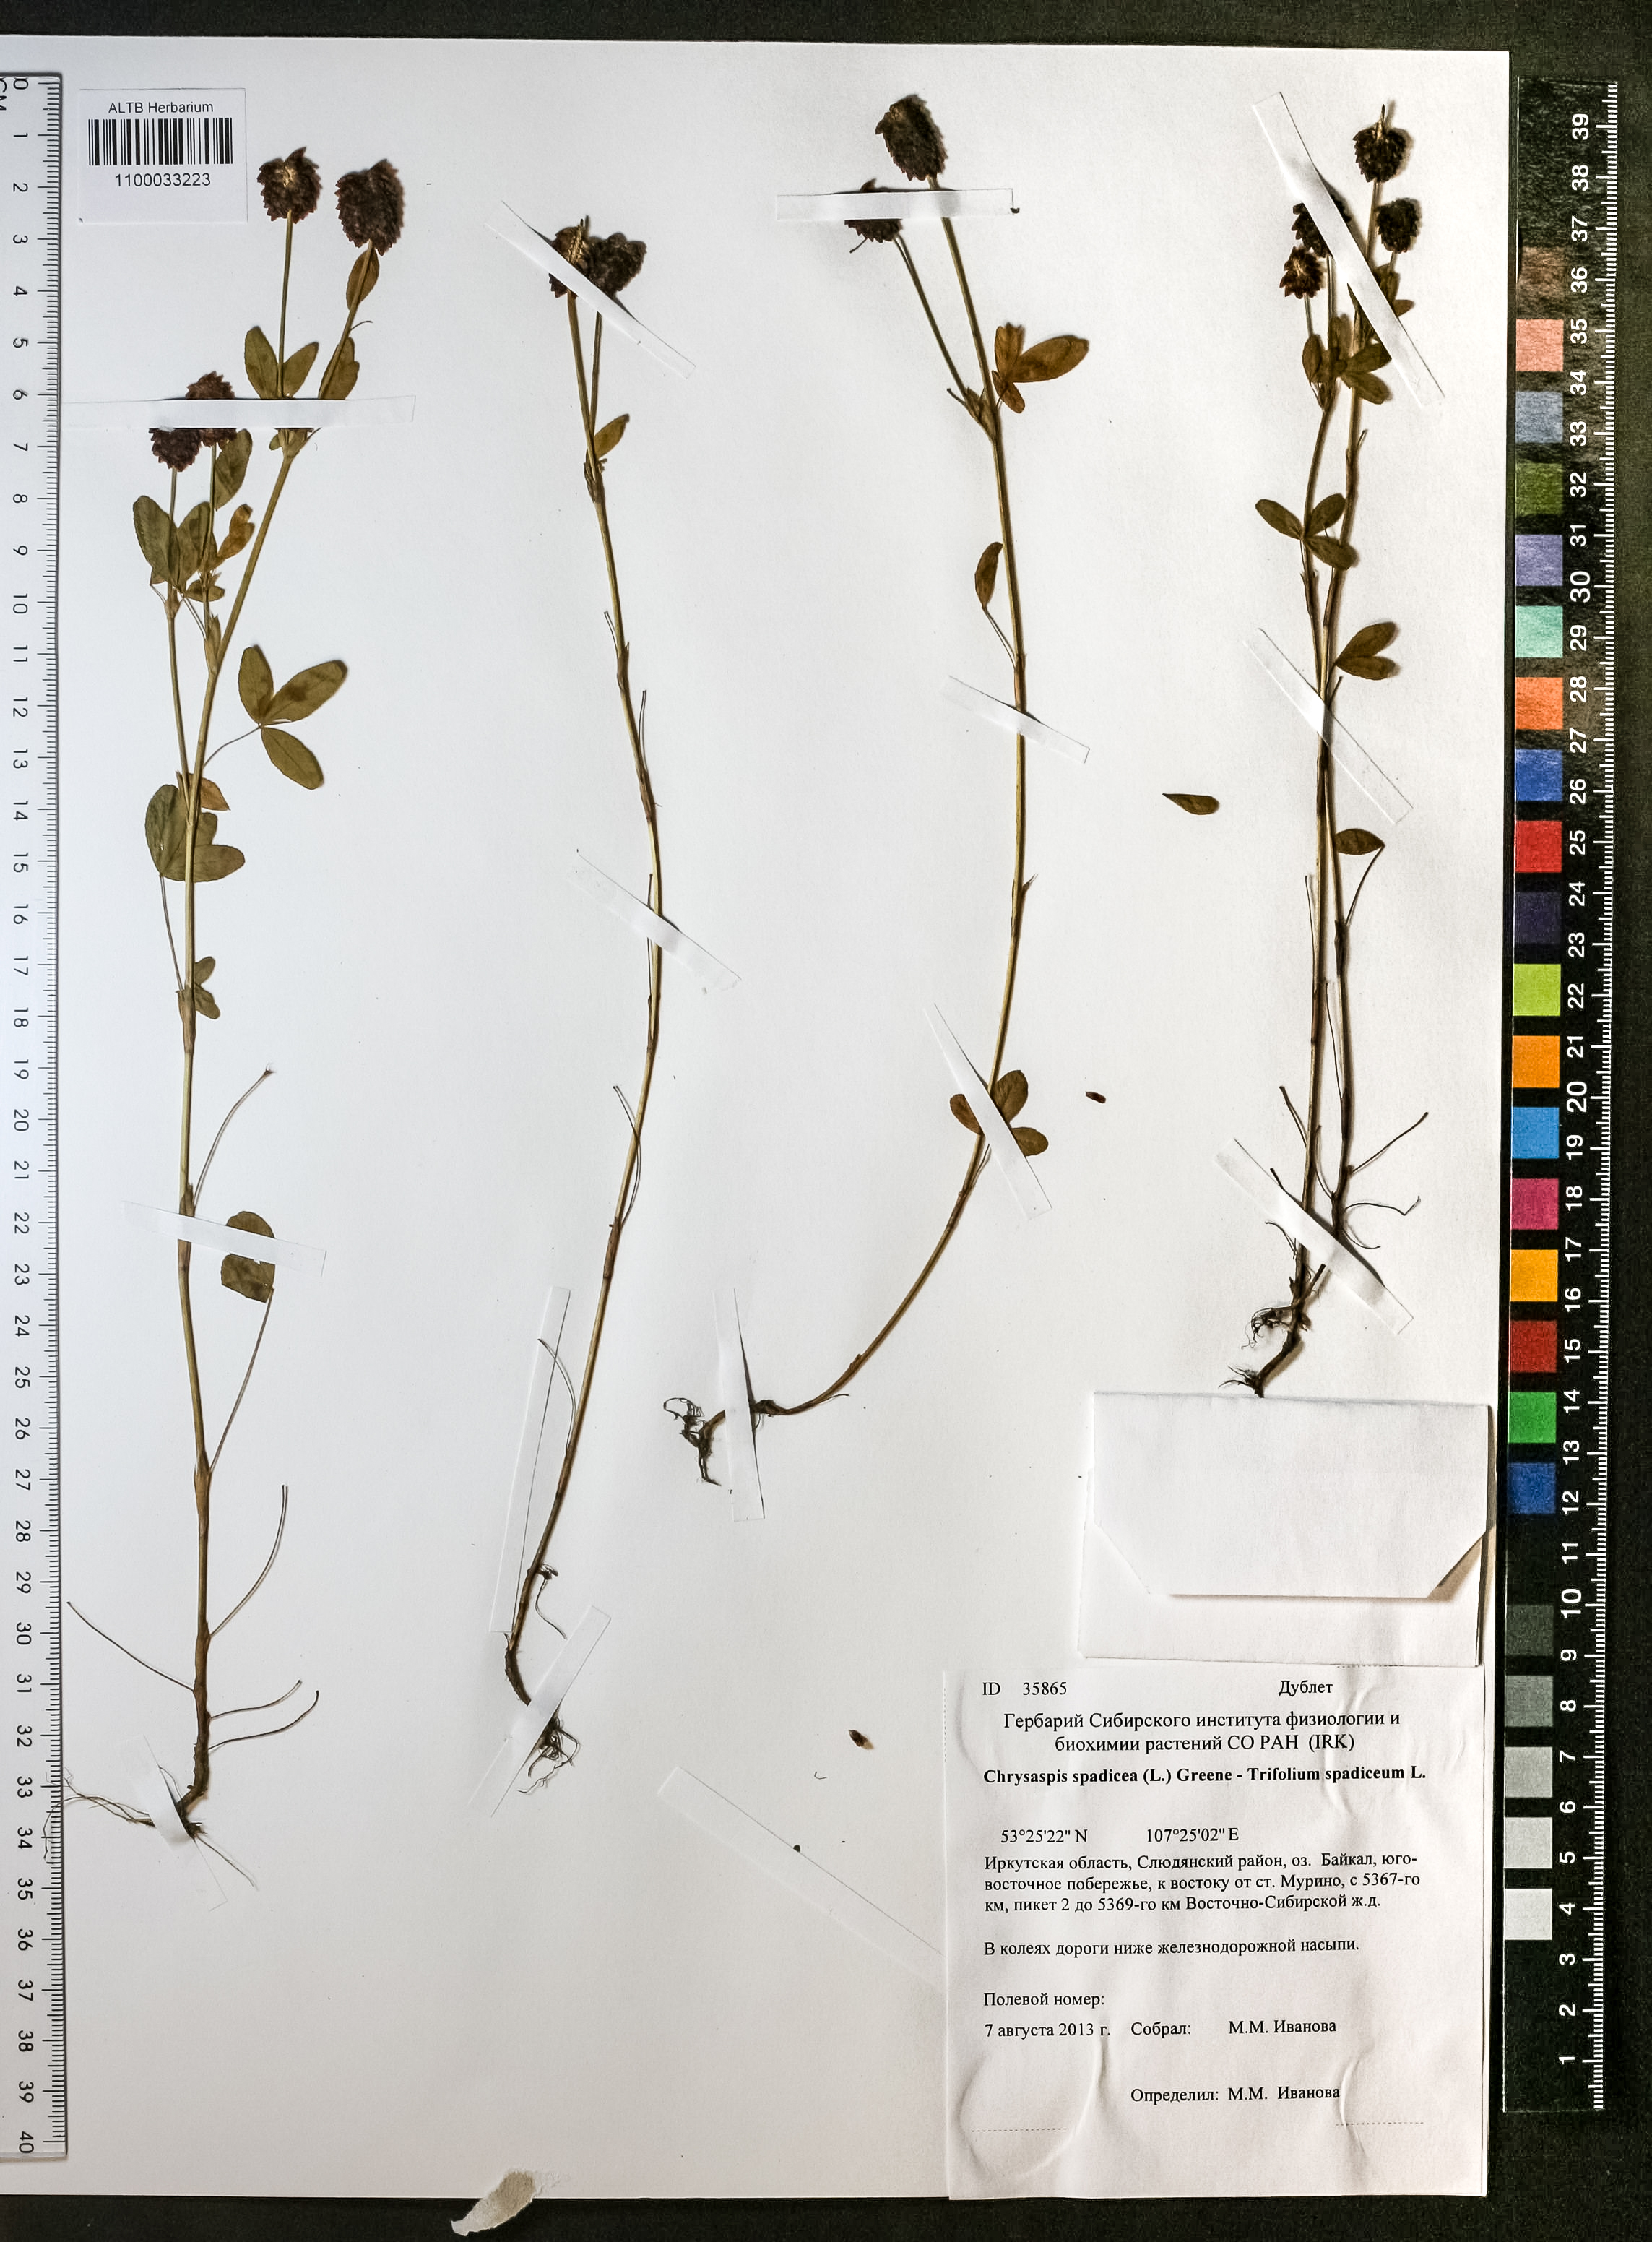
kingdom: Plantae
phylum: Tracheophyta
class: Magnoliopsida
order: Fabales
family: Fabaceae
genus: Trifolium
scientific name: Trifolium spadiceum
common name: Brown moor clover
